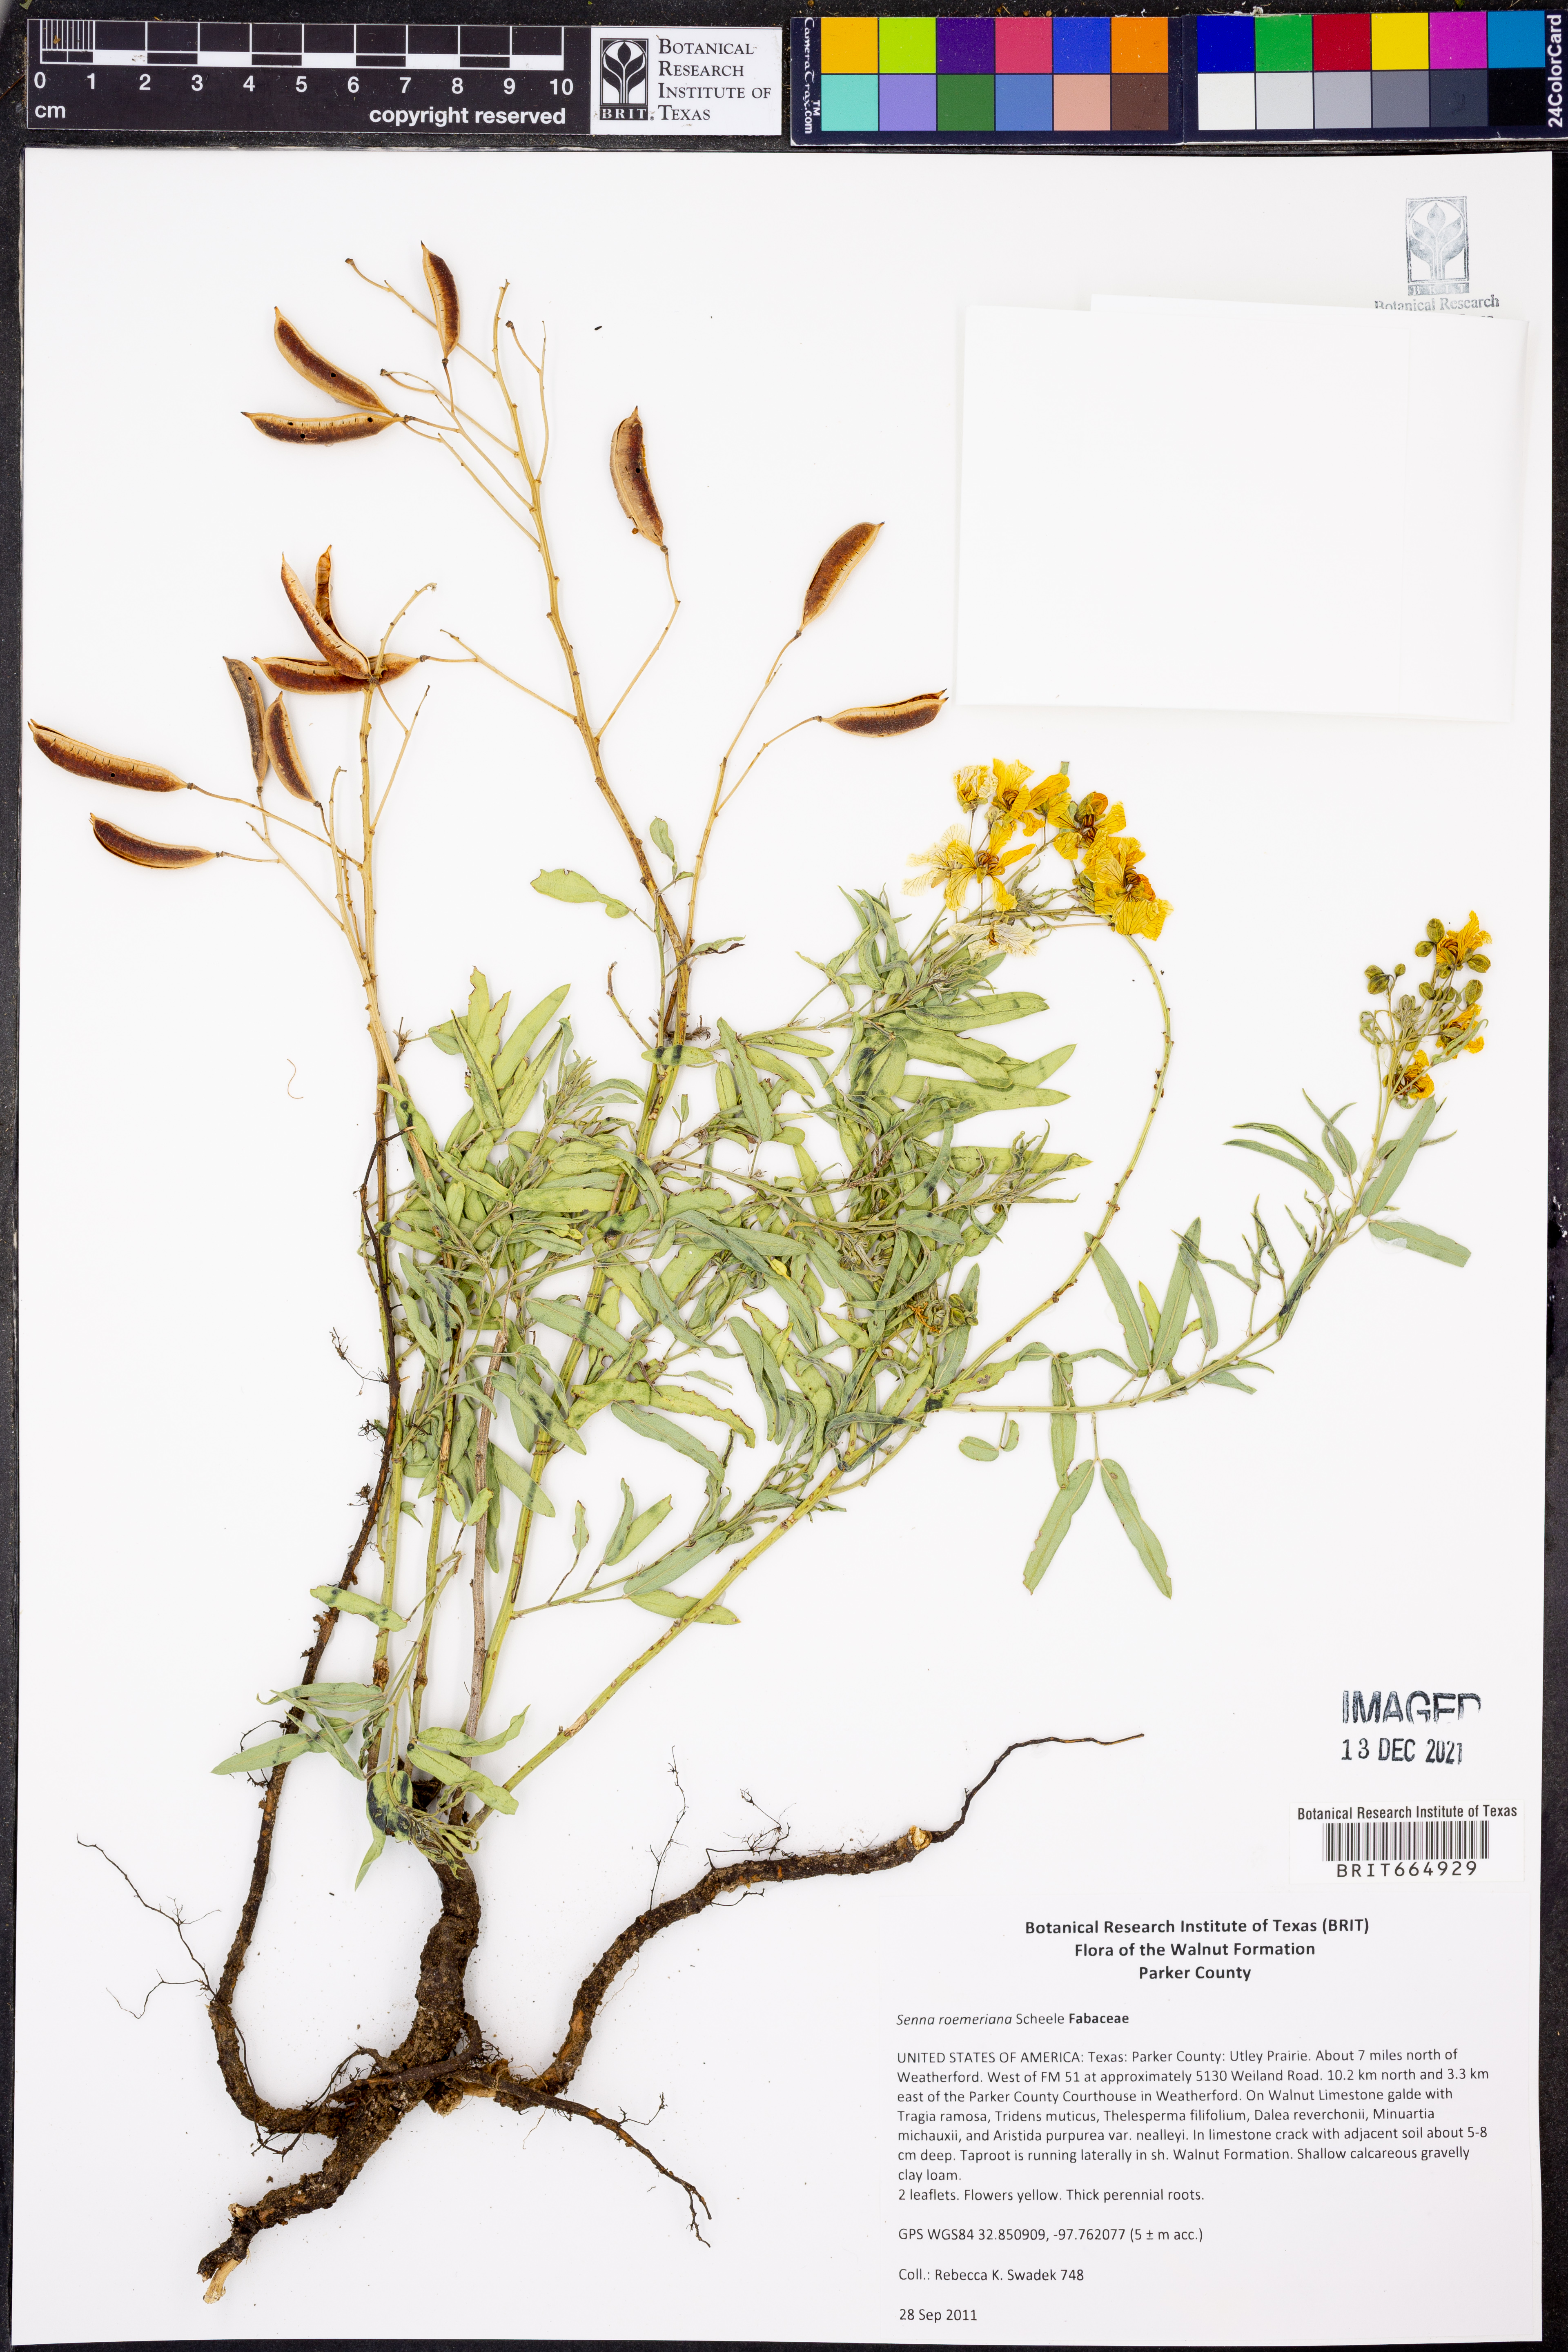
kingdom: Plantae
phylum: Tracheophyta
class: Magnoliopsida
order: Fabales
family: Fabaceae
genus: Senna
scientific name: Senna roemeriana
